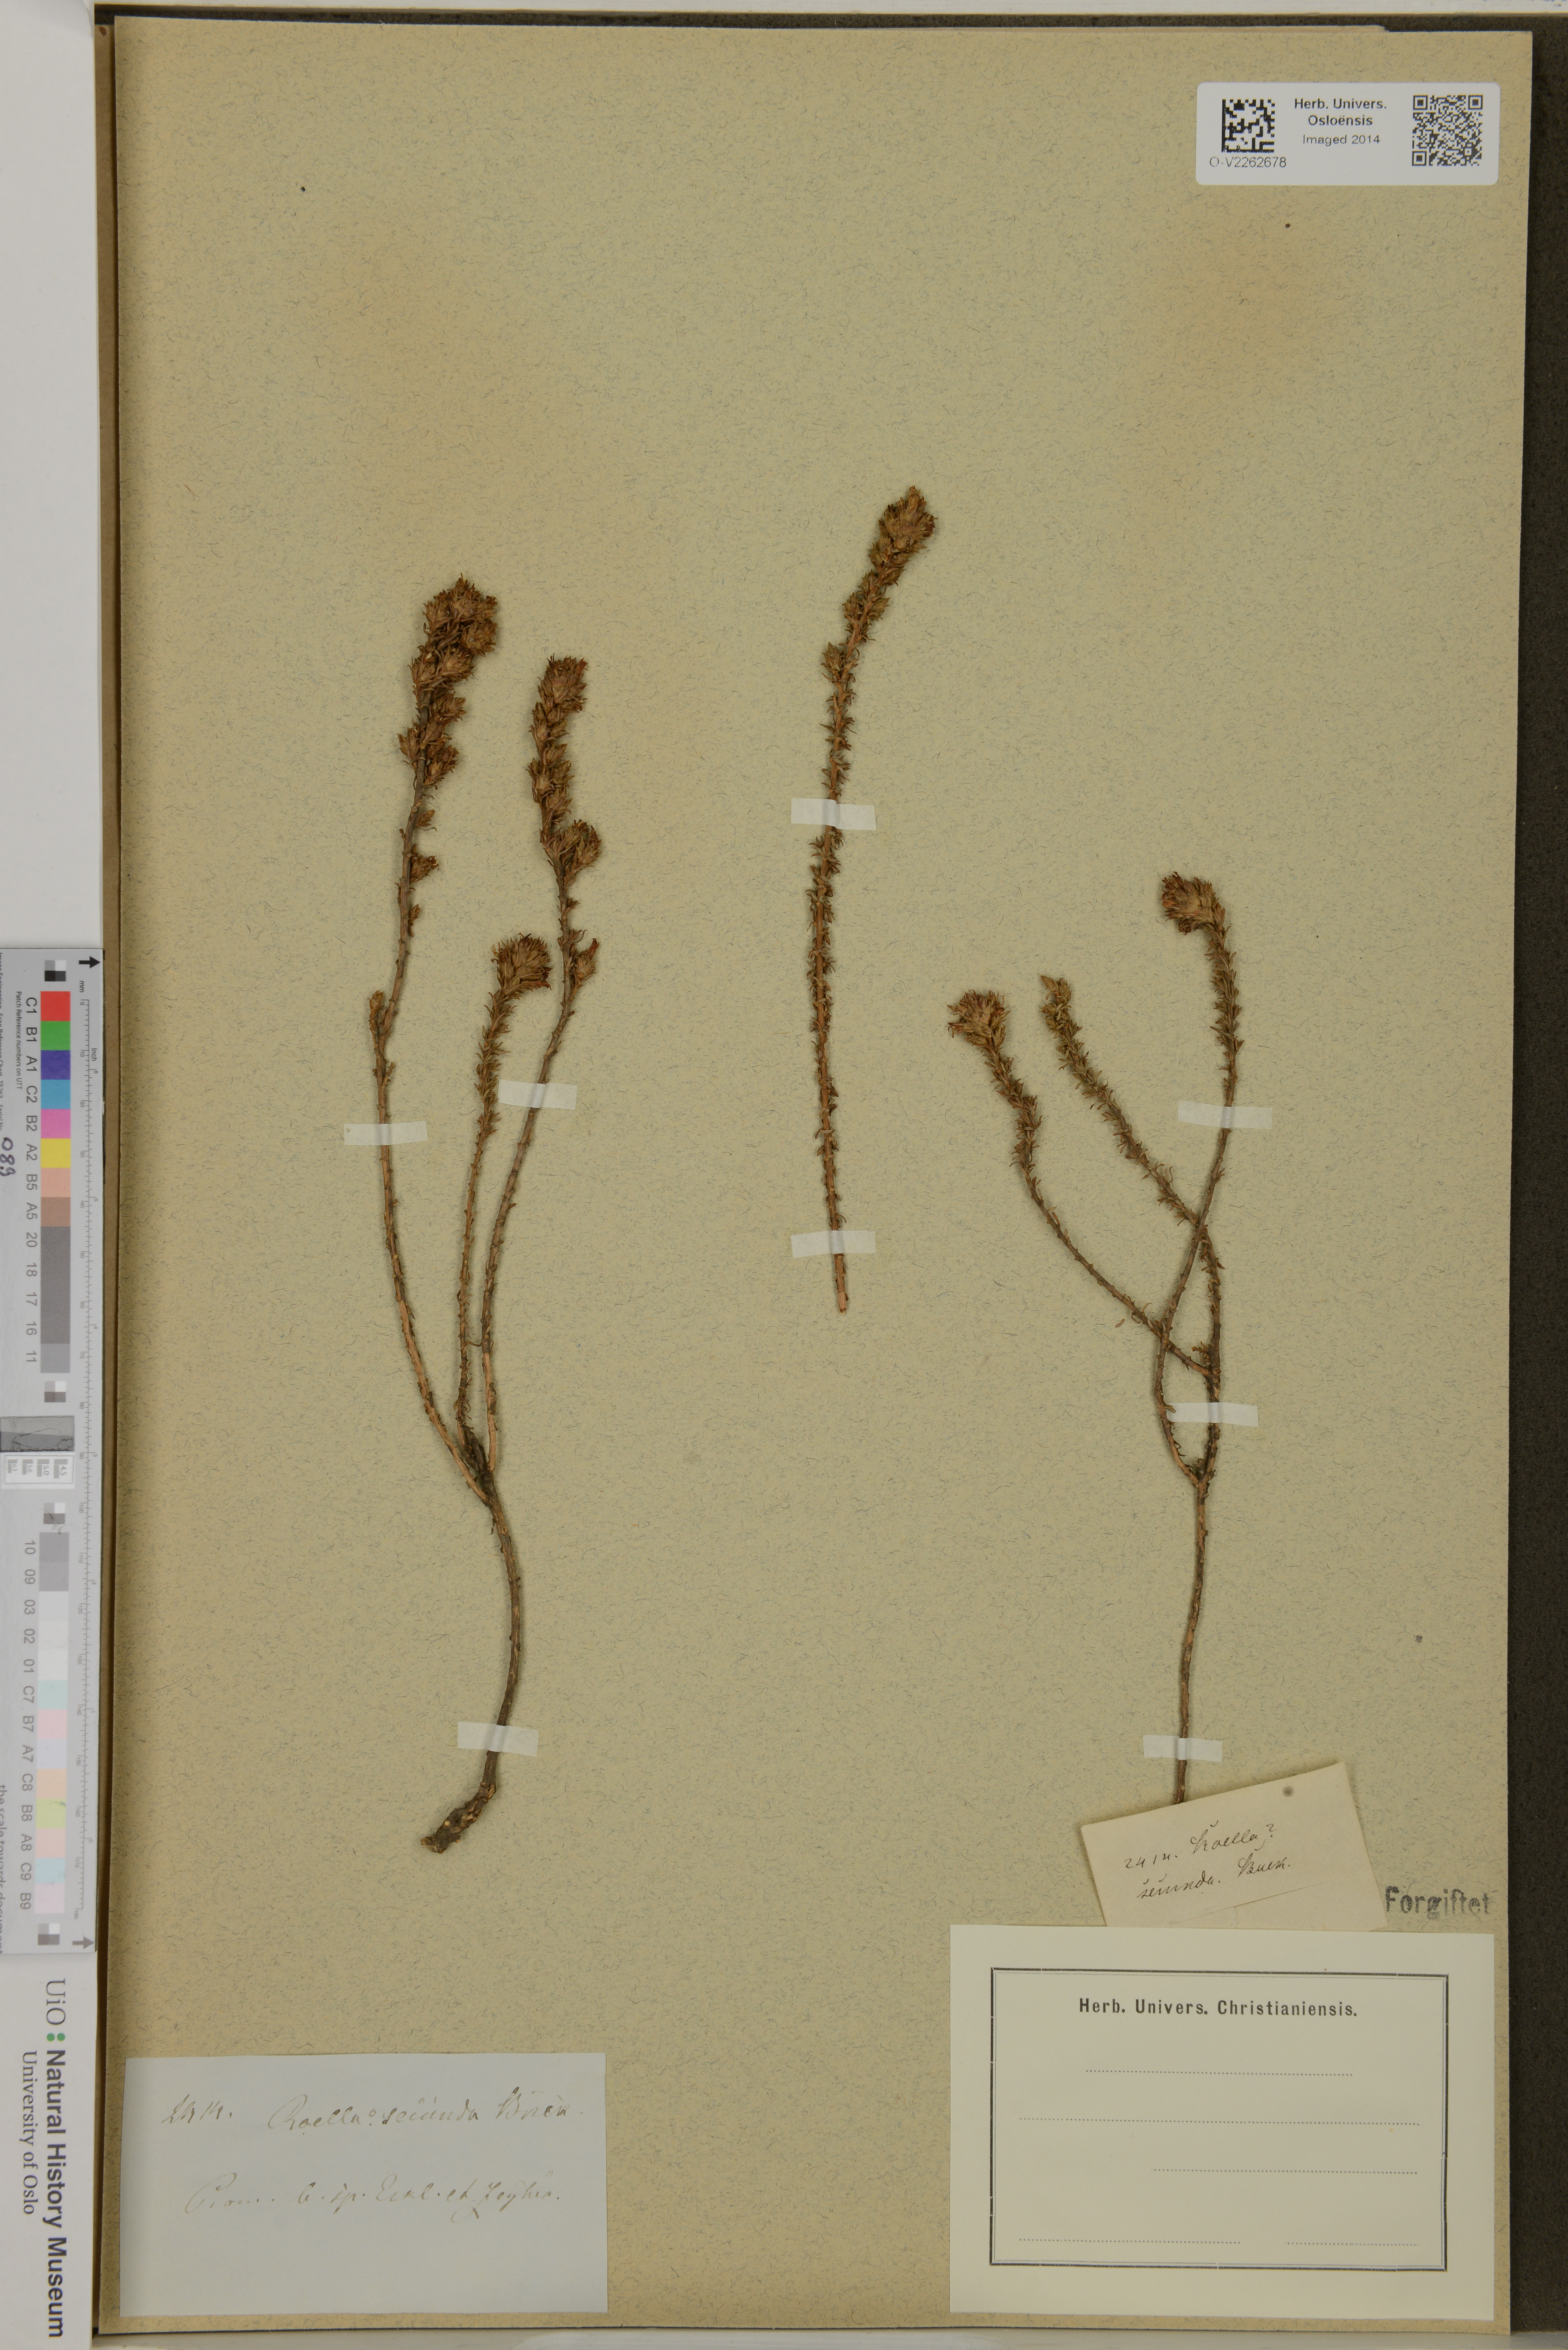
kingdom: Plantae
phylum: Tracheophyta
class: Magnoliopsida
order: Asterales
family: Campanulaceae
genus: Roella
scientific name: Roella secunda
